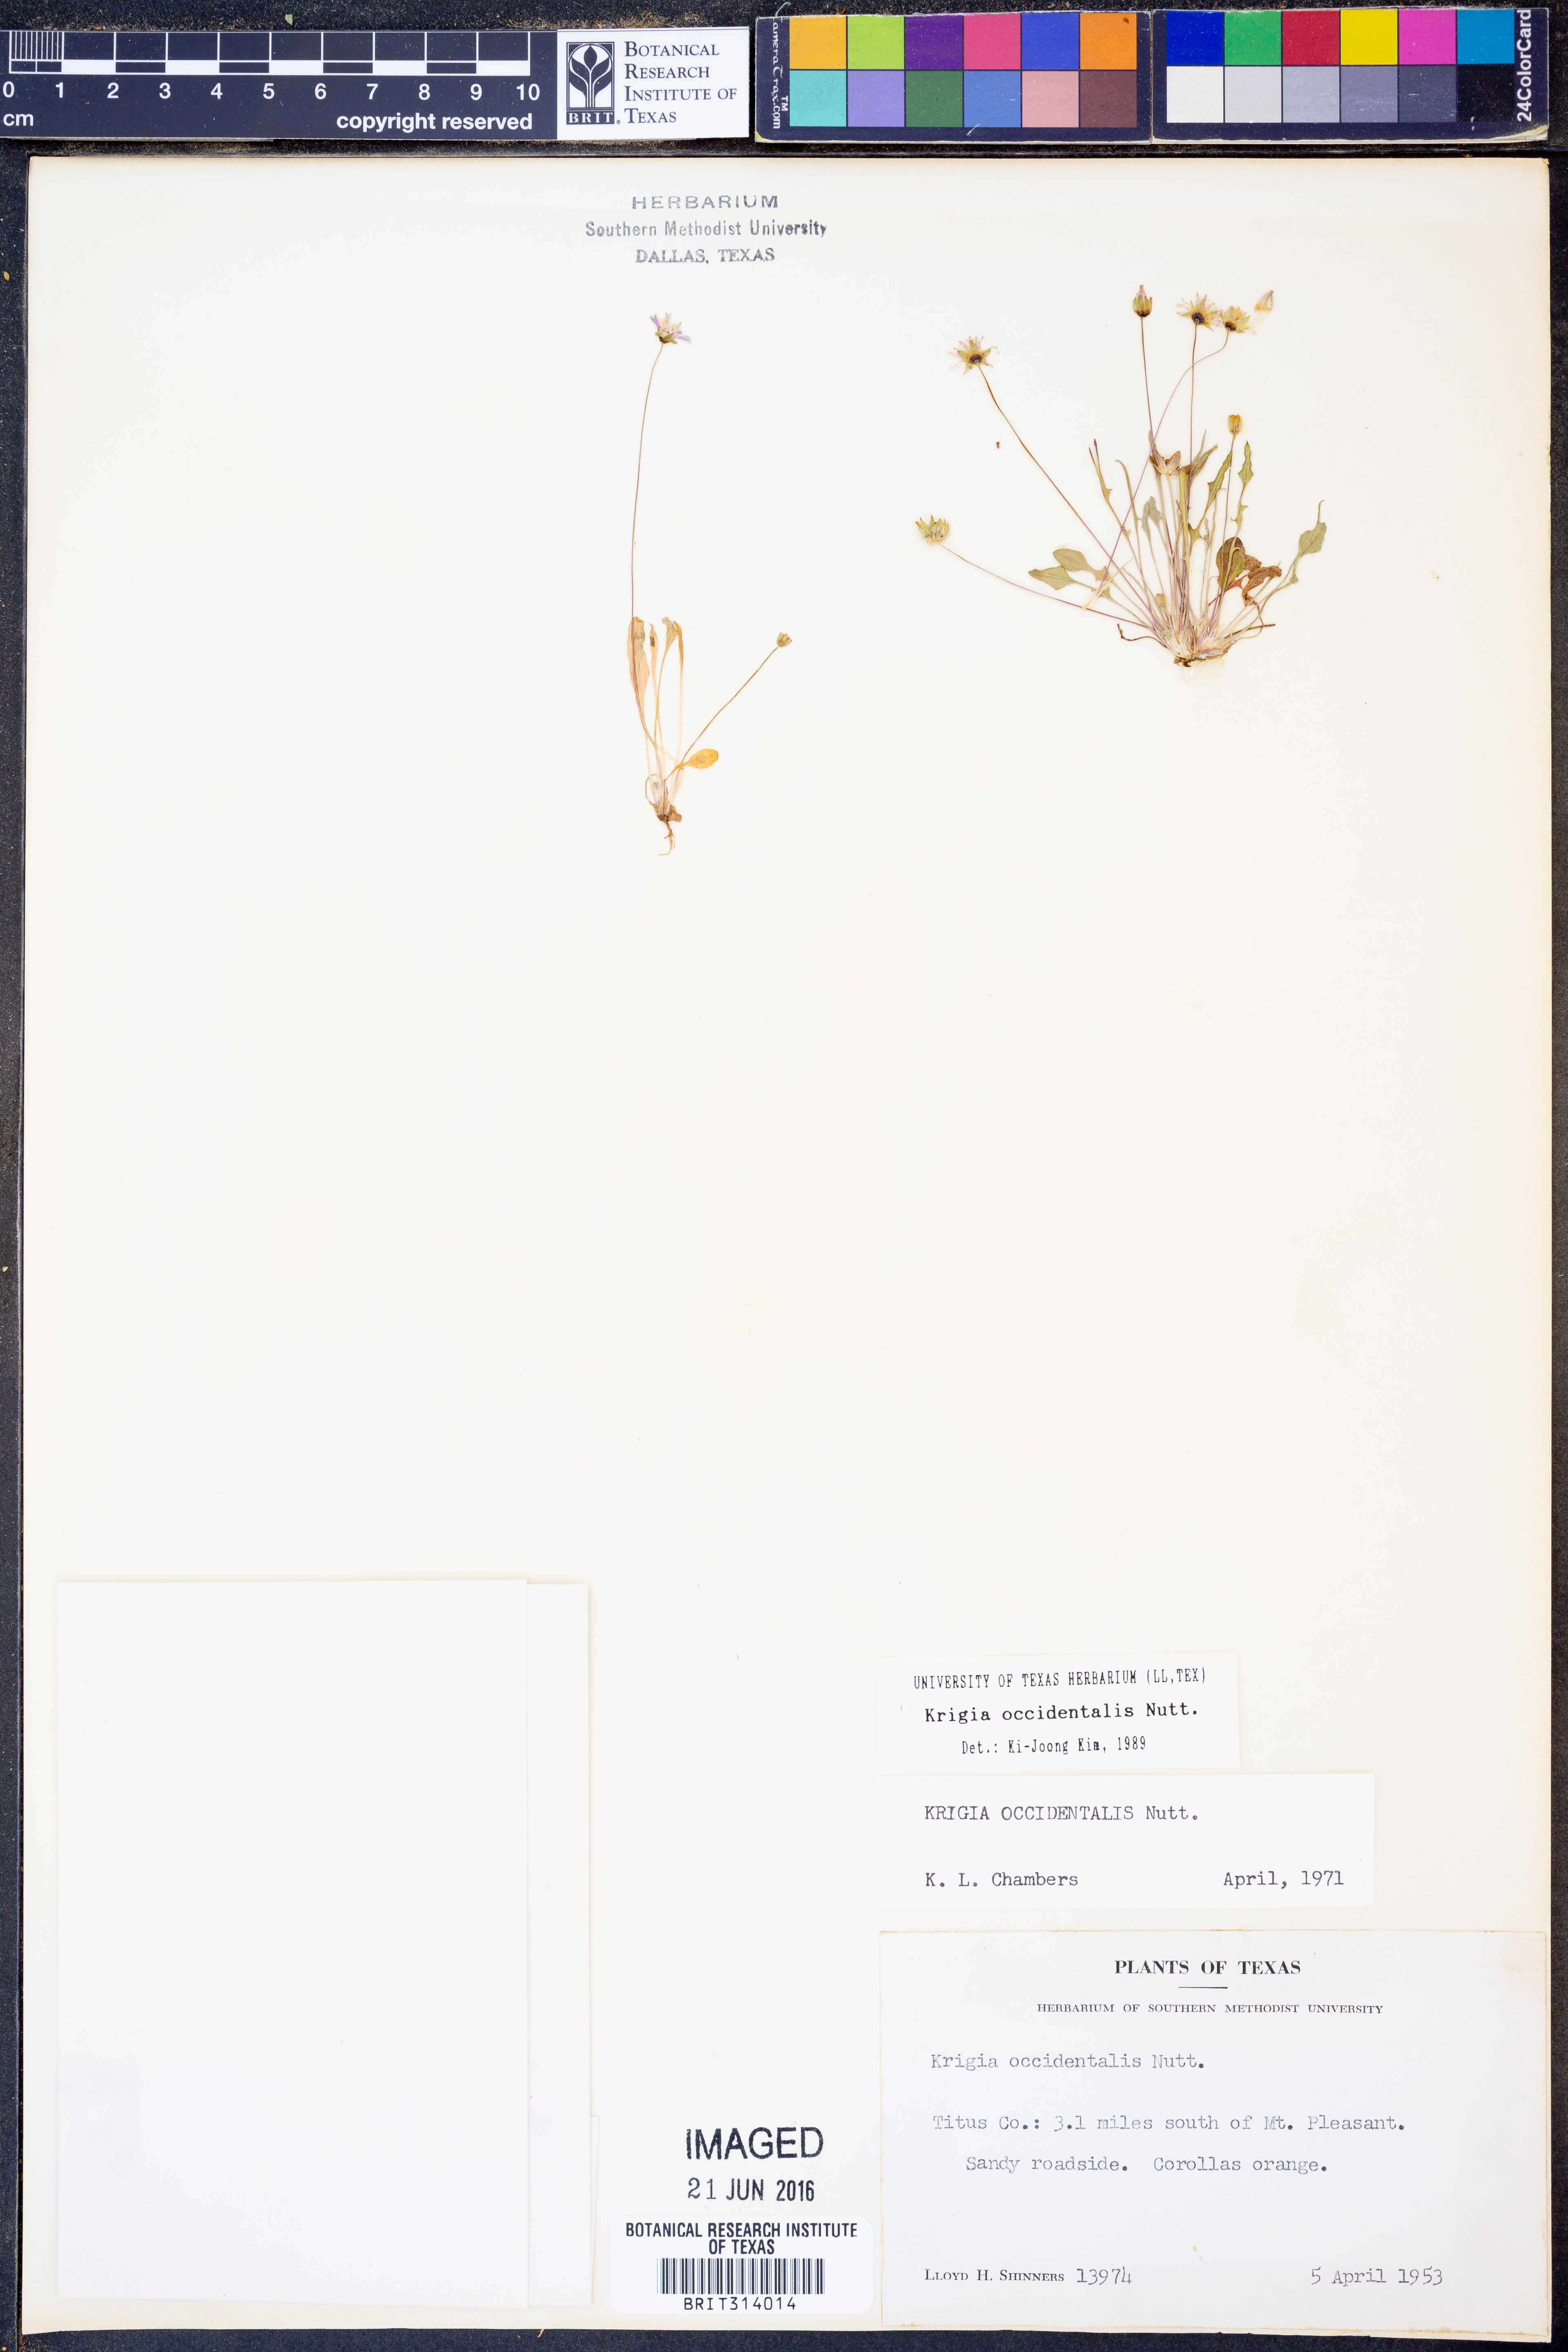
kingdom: Plantae
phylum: Tracheophyta
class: Magnoliopsida
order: Asterales
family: Asteraceae
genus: Krigia
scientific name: Krigia occidentalis
